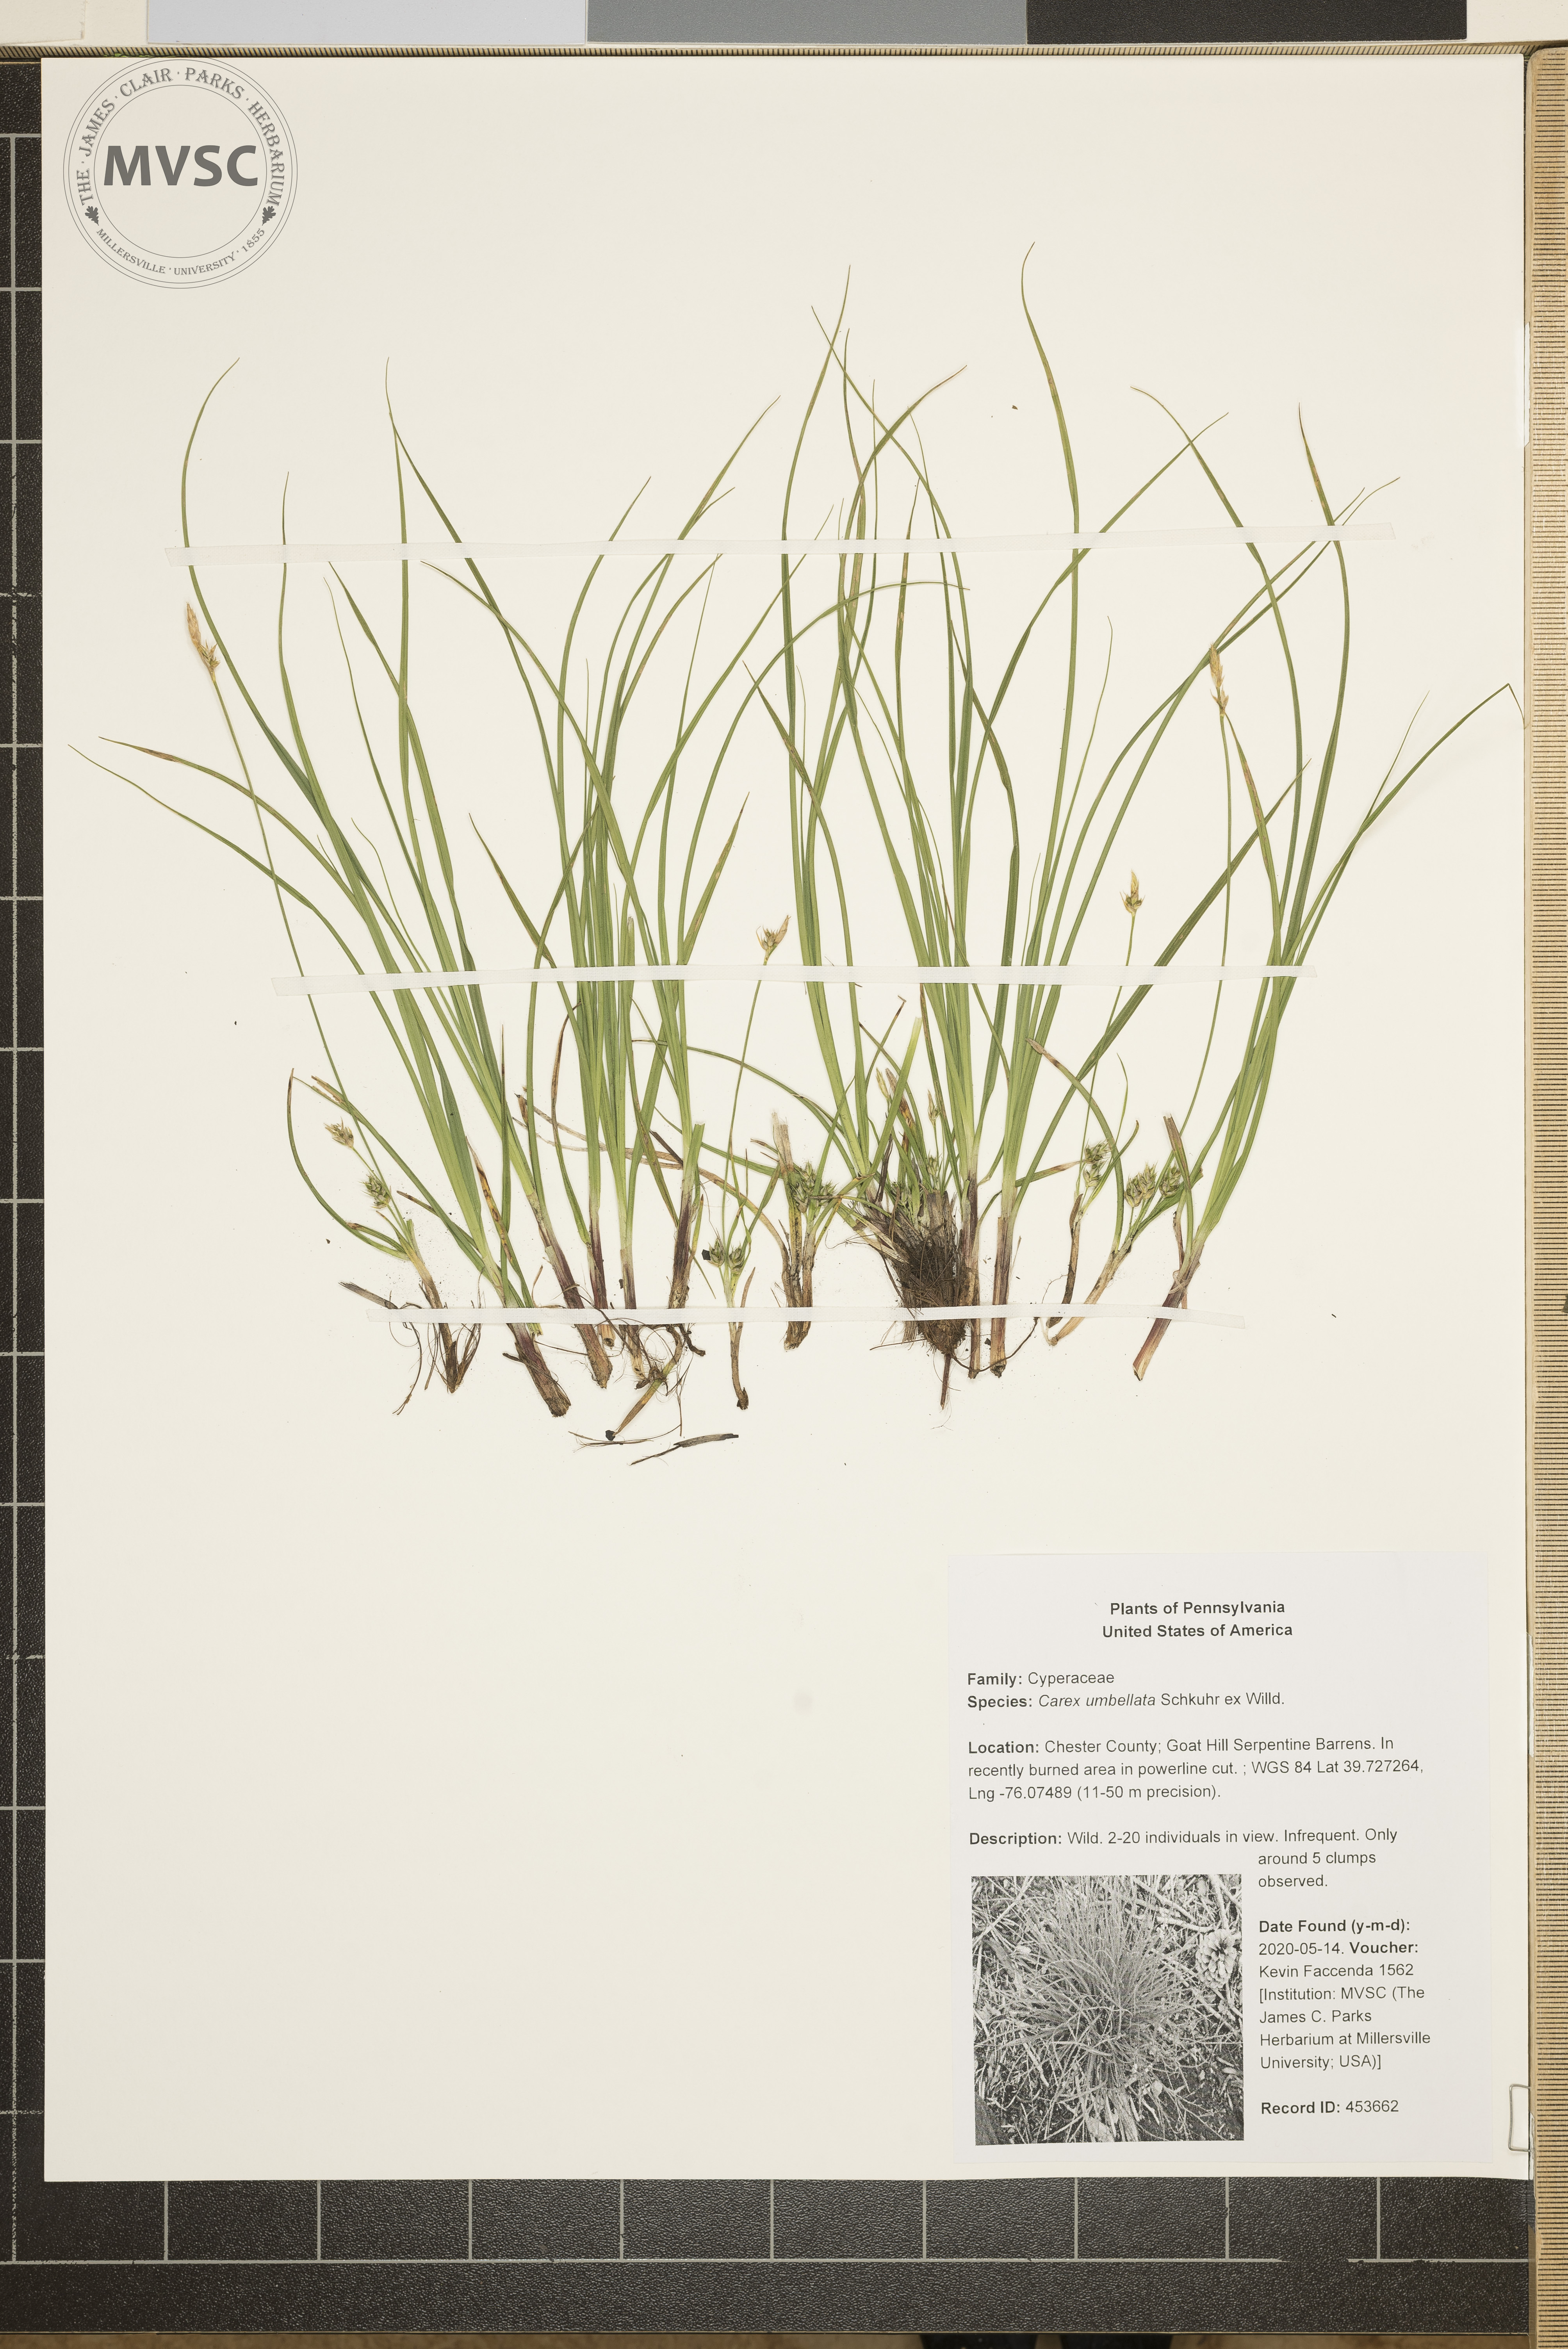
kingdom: Plantae
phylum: Tracheophyta
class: Liliopsida
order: Poales
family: Cyperaceae
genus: Carex
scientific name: Carex umbellata
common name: Early oak sedge
